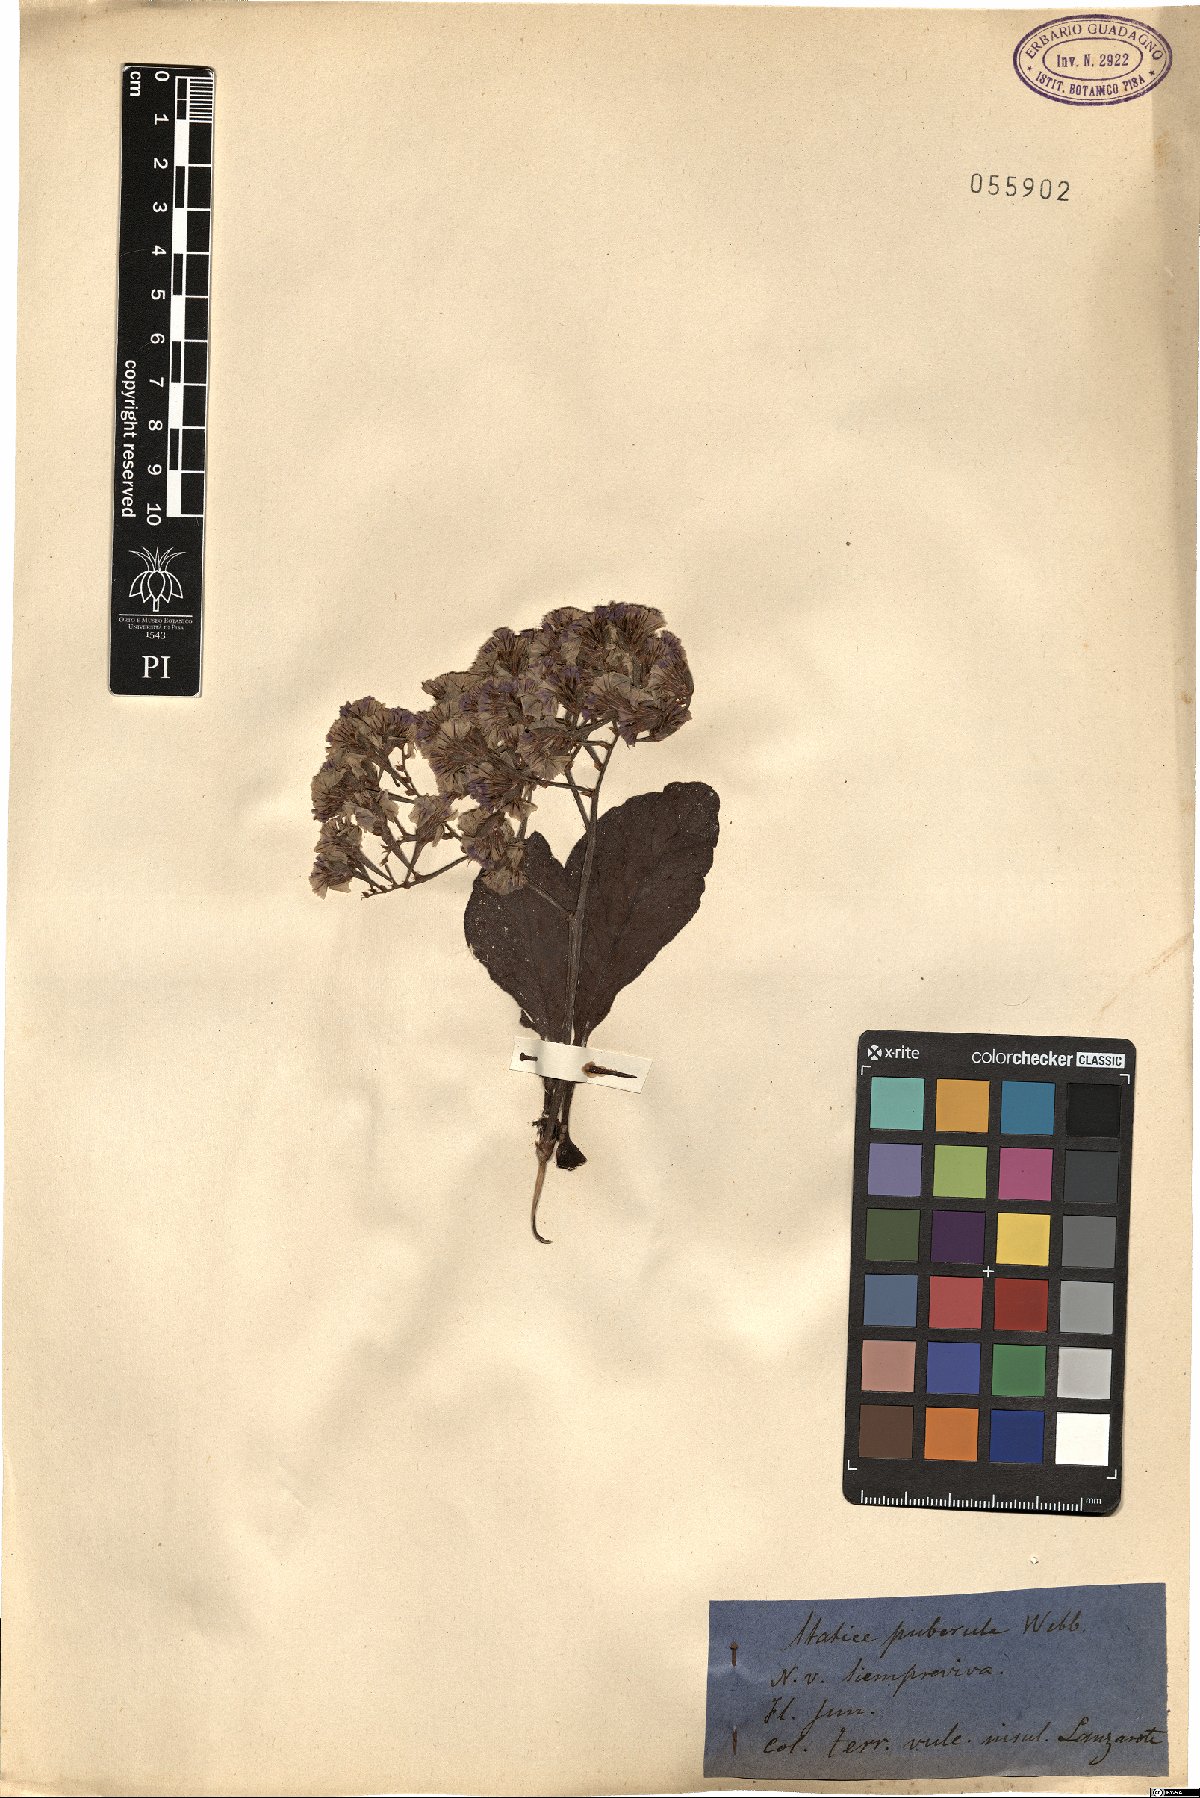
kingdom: Plantae
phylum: Tracheophyta
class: Magnoliopsida
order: Caryophyllales
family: Plumbaginaceae
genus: Limonium
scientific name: Limonium puberulum
